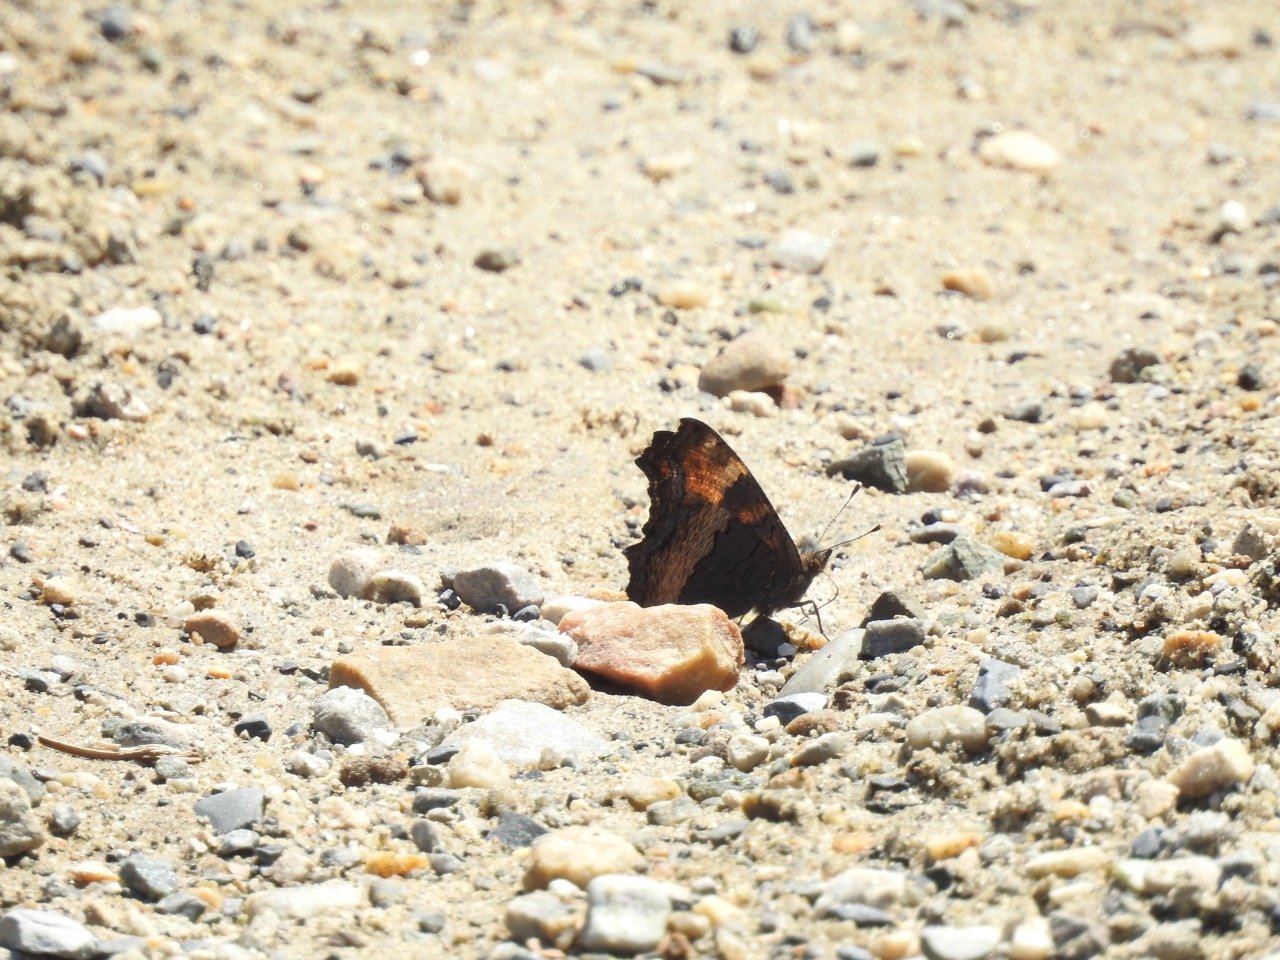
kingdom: Animalia
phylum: Arthropoda
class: Insecta
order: Lepidoptera
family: Nymphalidae
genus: Aglais
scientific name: Aglais milberti
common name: Milbert's Tortoiseshell
